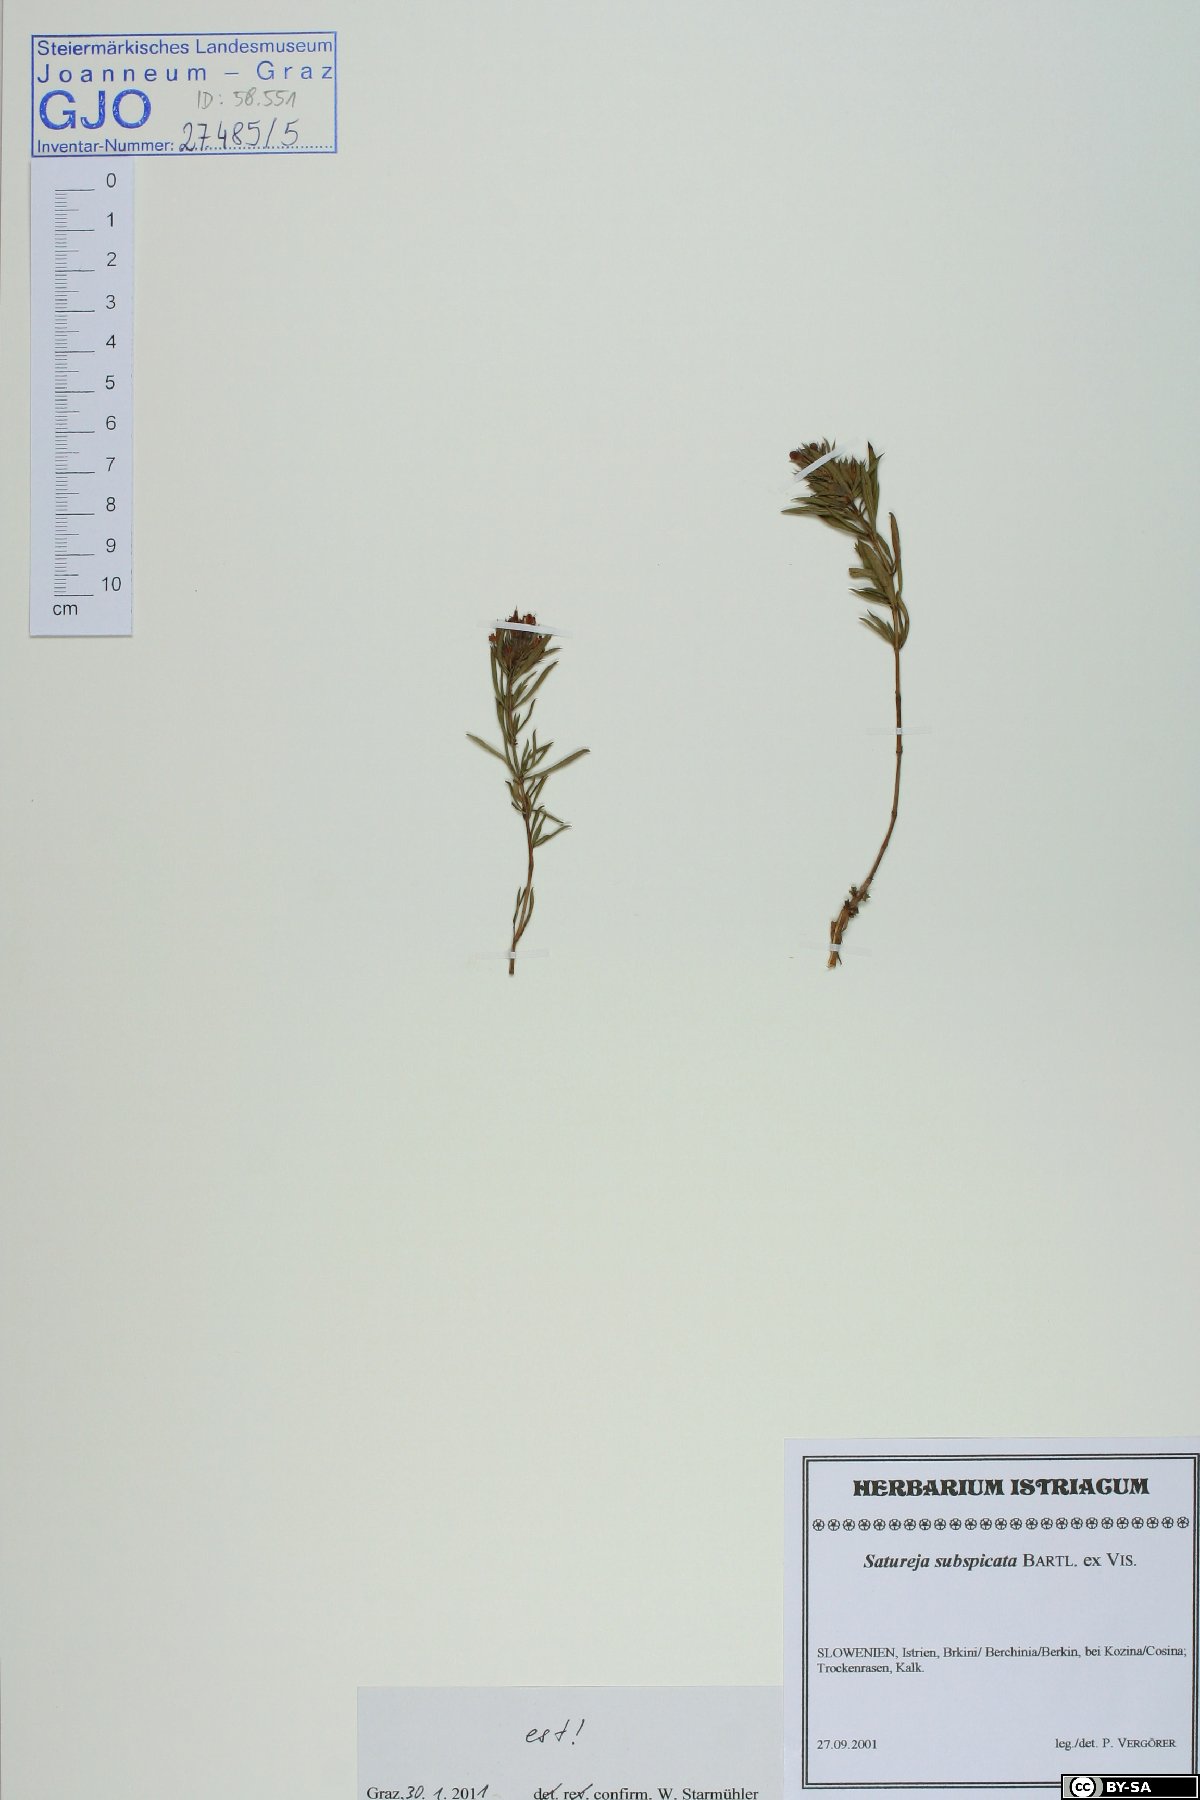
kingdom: Plantae
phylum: Tracheophyta
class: Magnoliopsida
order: Lamiales
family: Lamiaceae
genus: Satureja
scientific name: Satureja subspicata
